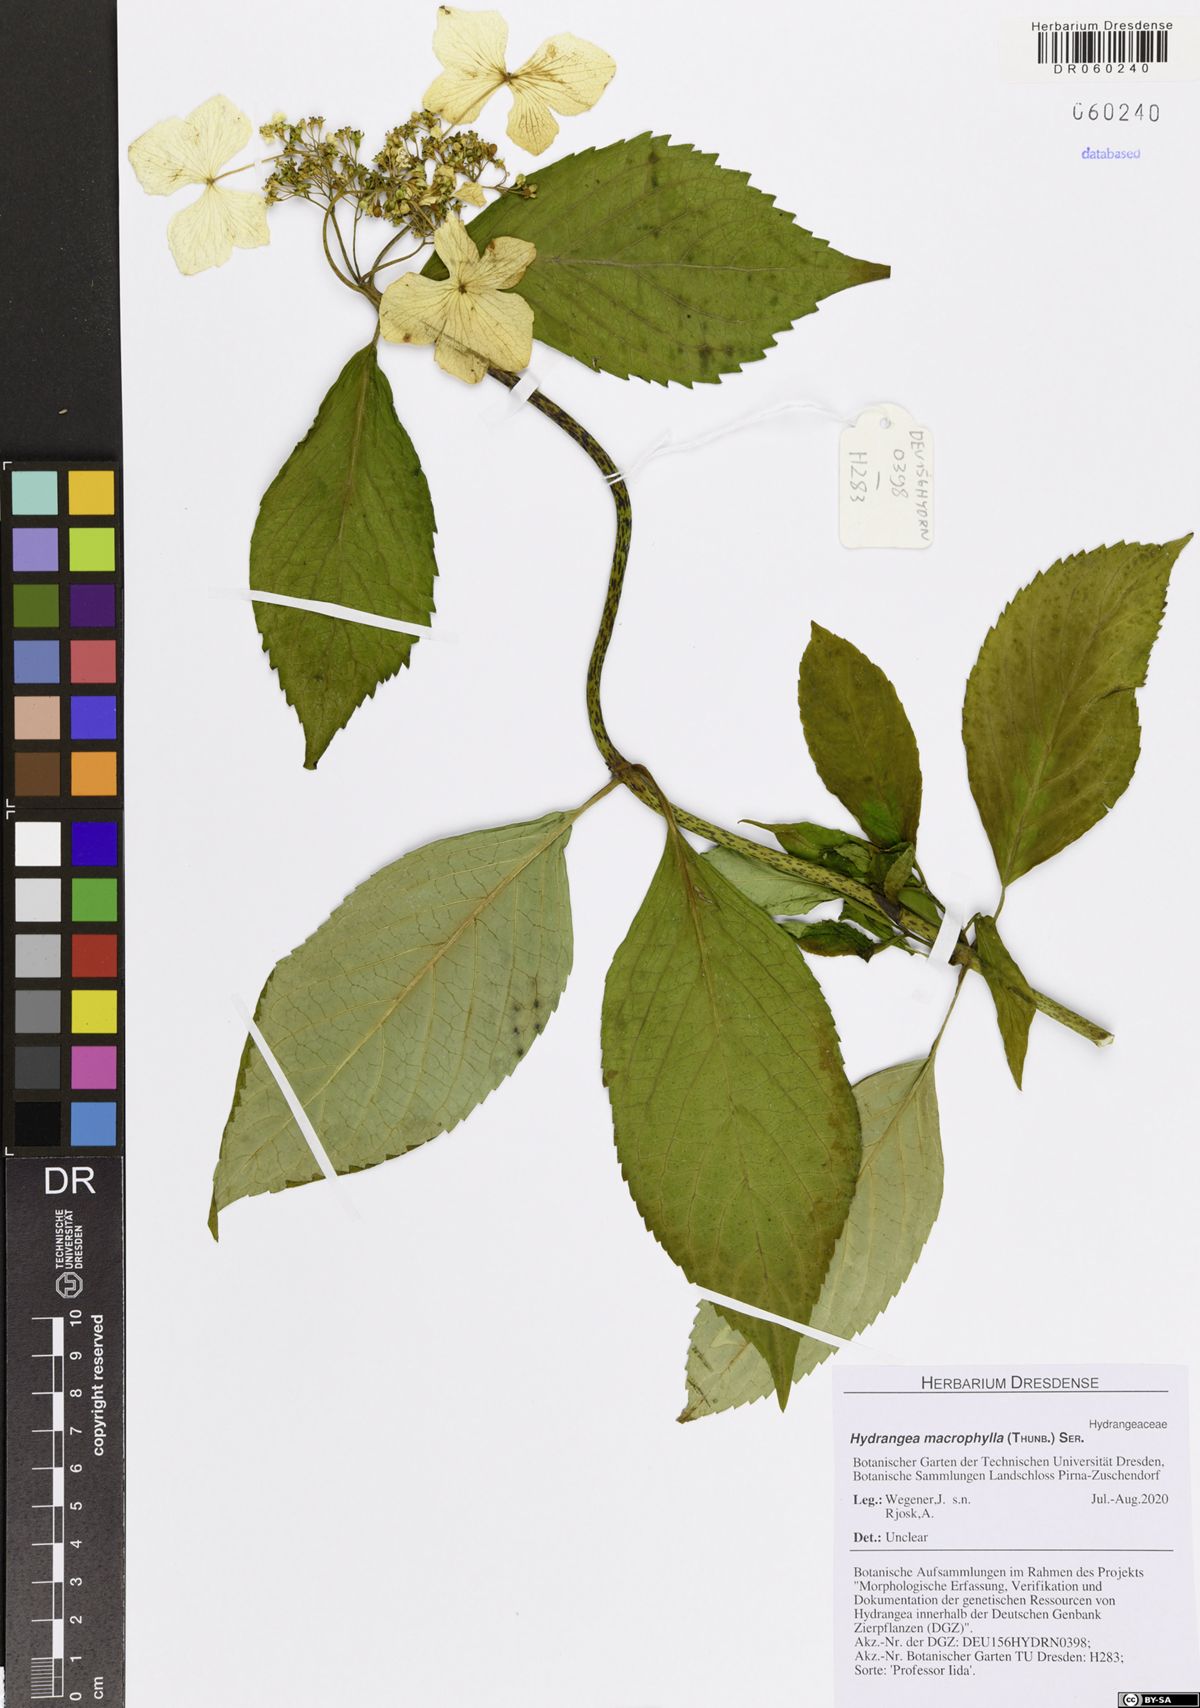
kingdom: Plantae
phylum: Tracheophyta
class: Magnoliopsida
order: Cornales
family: Hydrangeaceae
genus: Hydrangea
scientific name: Hydrangea macrophylla
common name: Hydrangea
